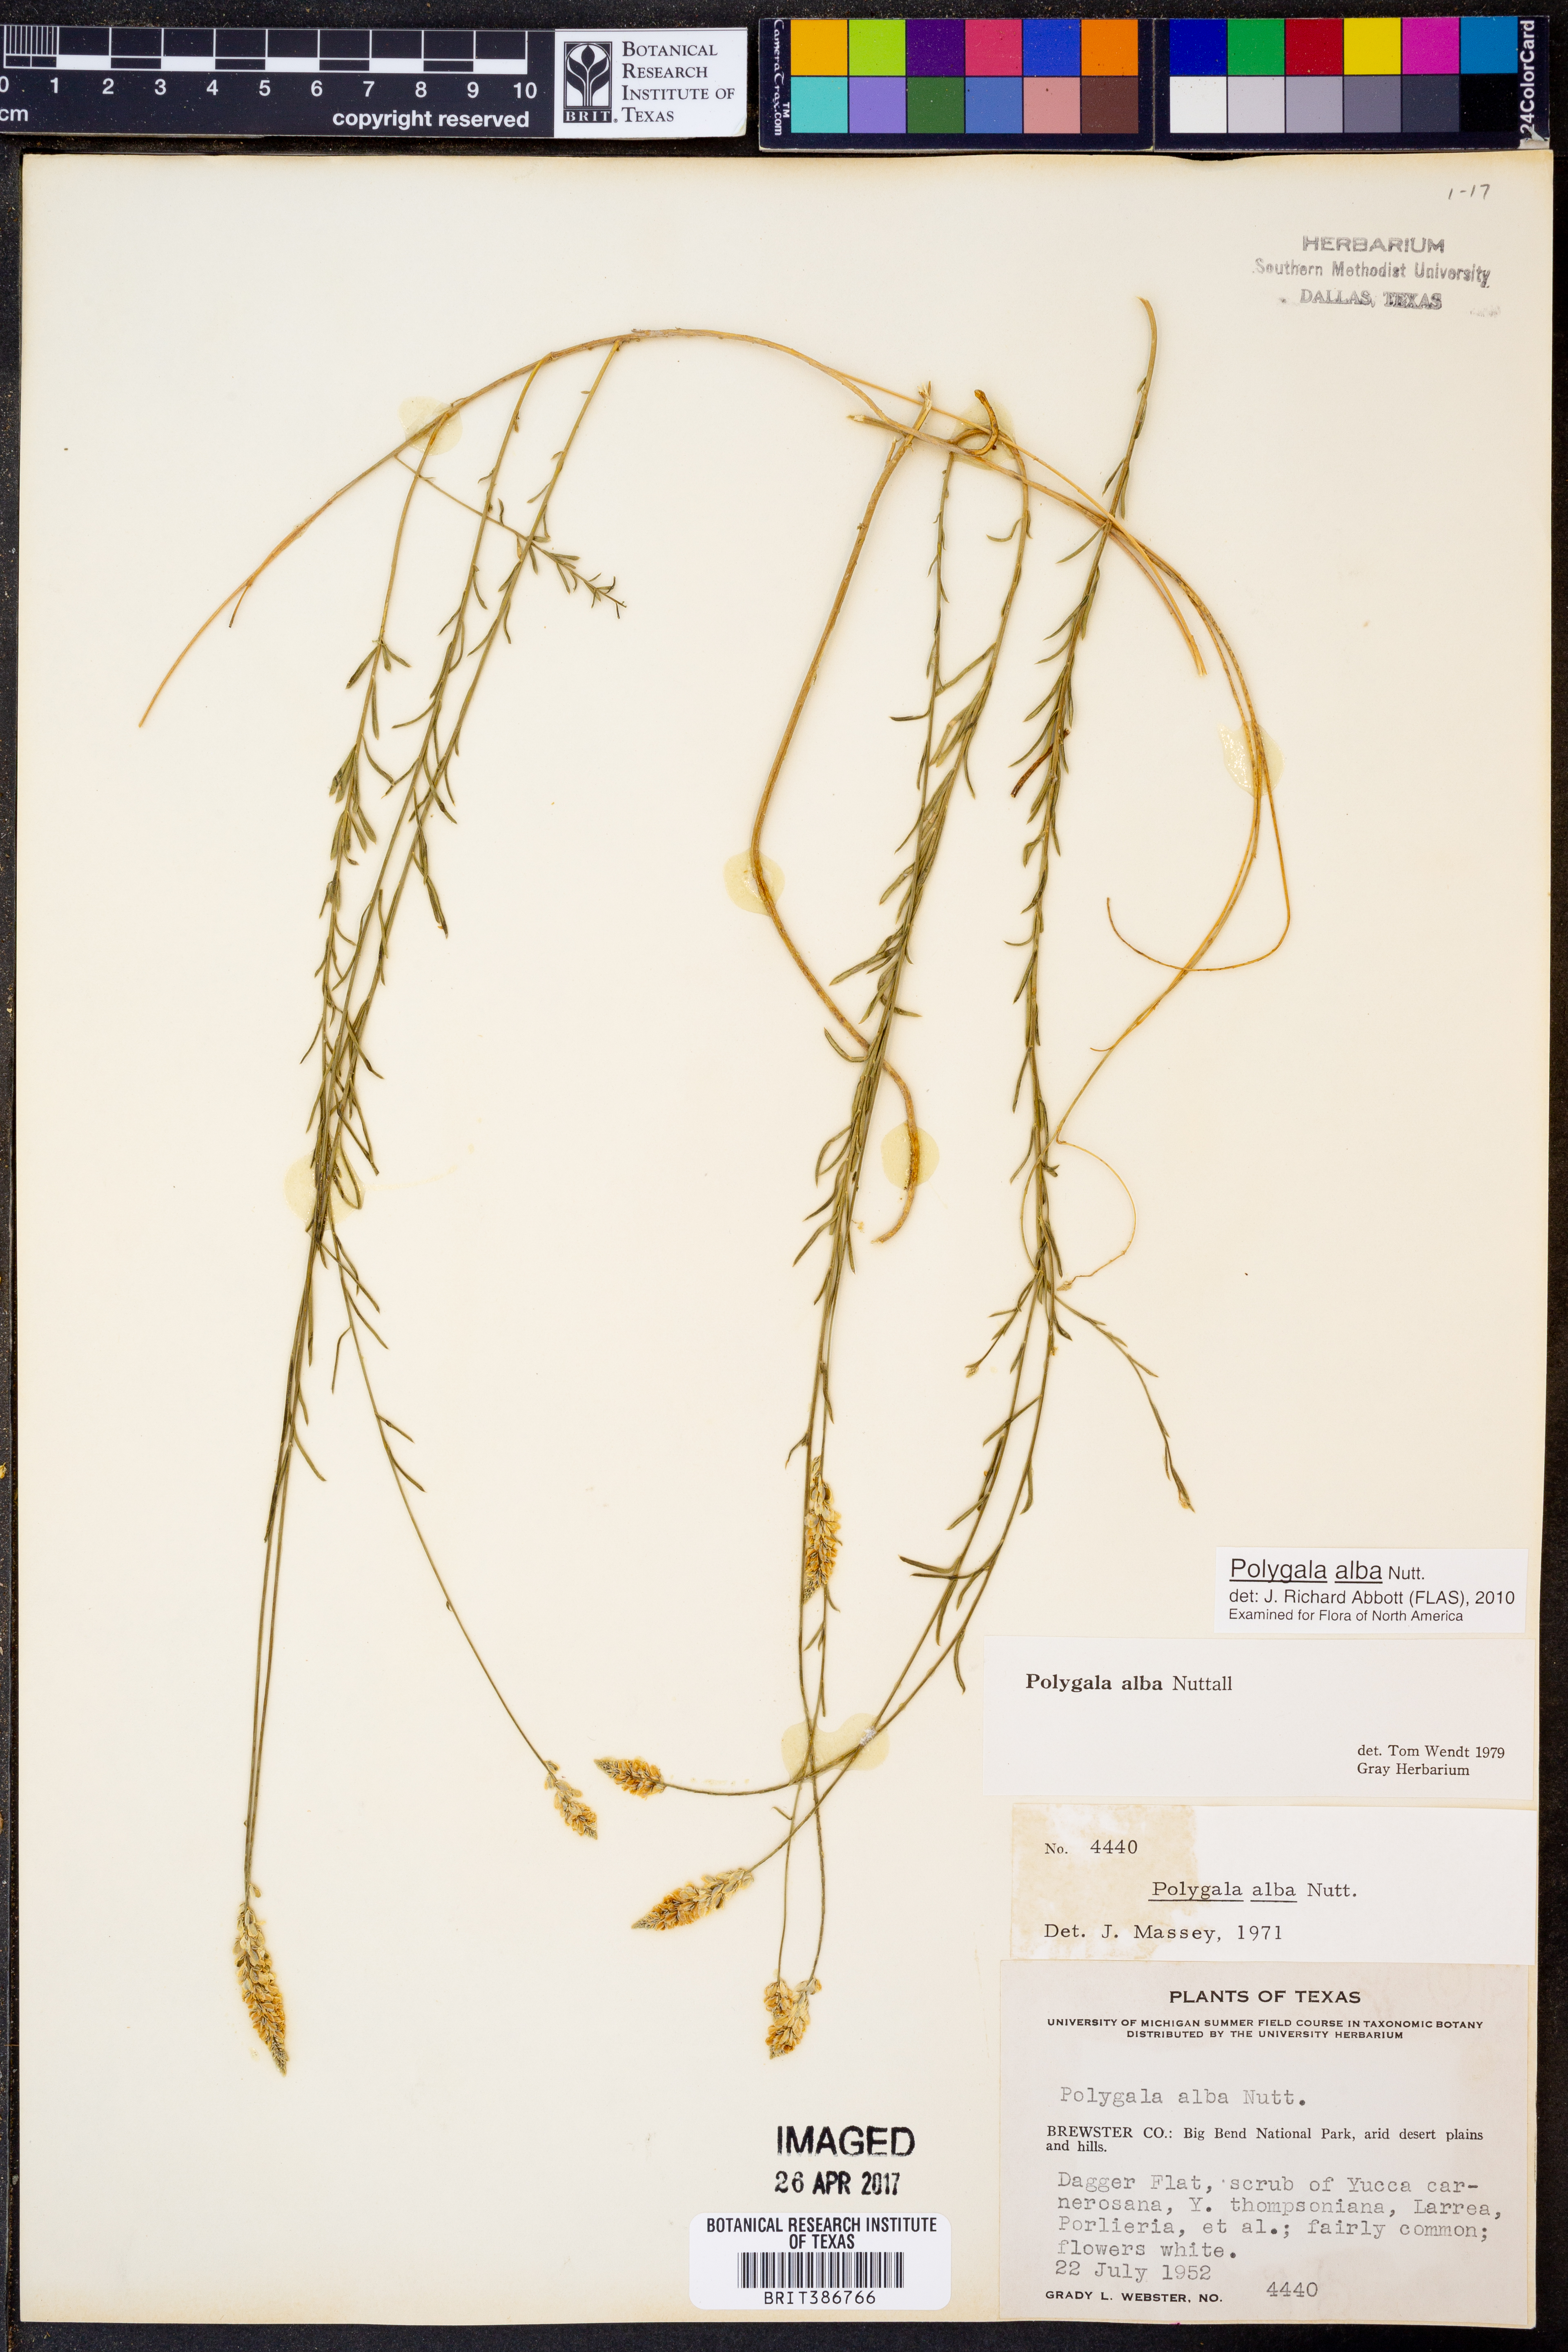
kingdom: Plantae
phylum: Tracheophyta
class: Magnoliopsida
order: Fabales
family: Polygalaceae
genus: Polygala
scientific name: Polygala alba
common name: White milkwort
